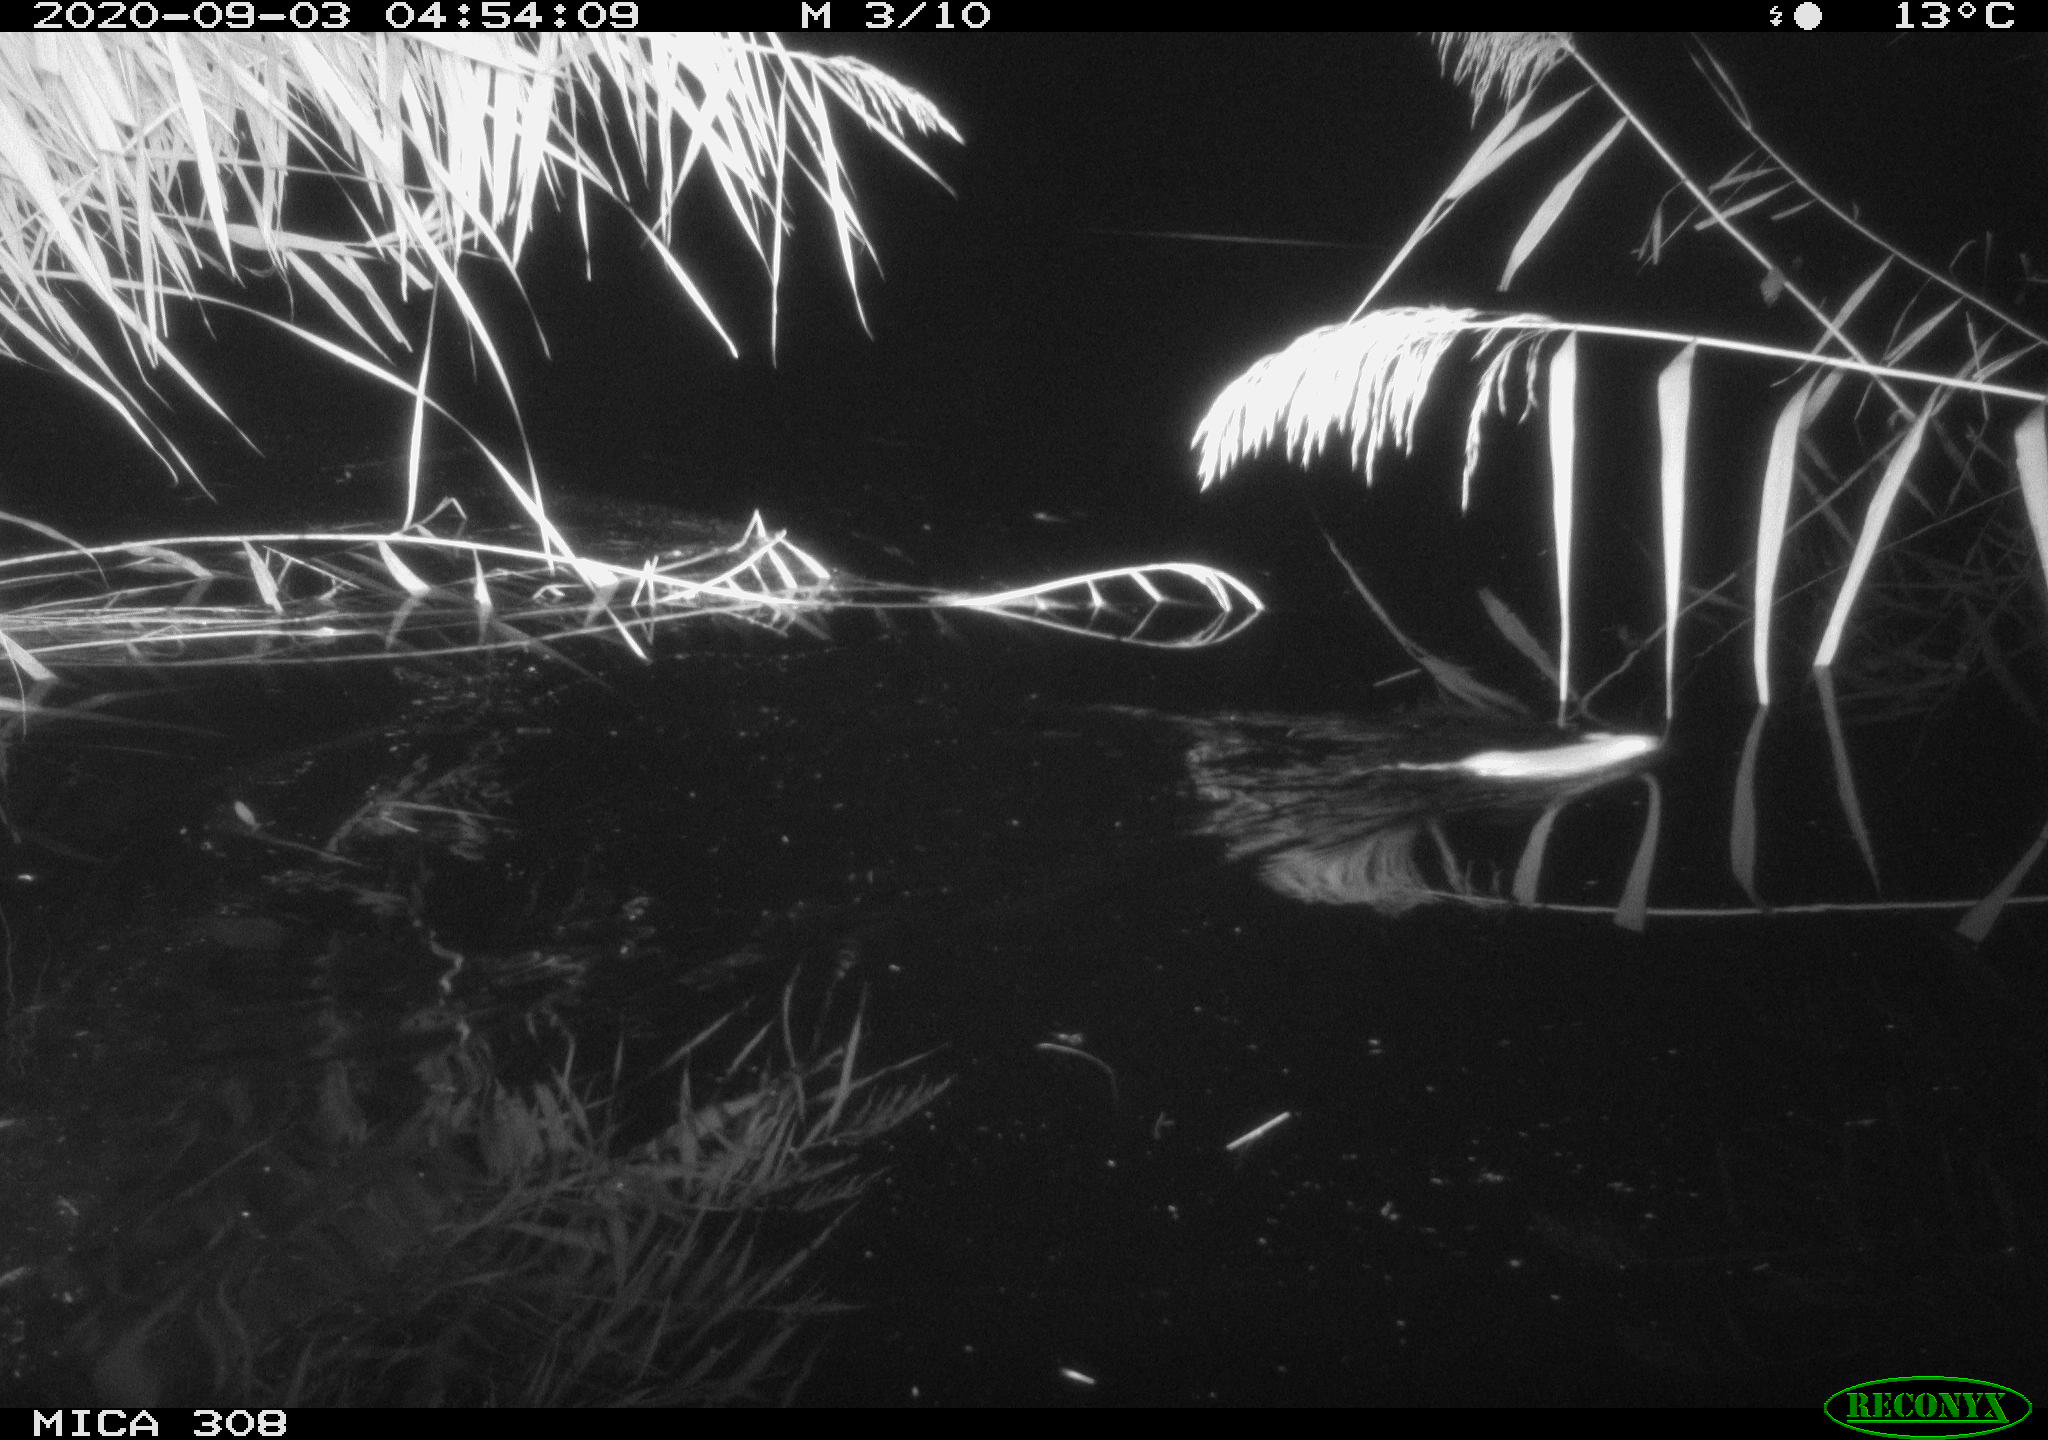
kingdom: Animalia
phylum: Chordata
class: Mammalia
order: Rodentia
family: Muridae
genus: Rattus
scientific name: Rattus norvegicus
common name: Brown rat
